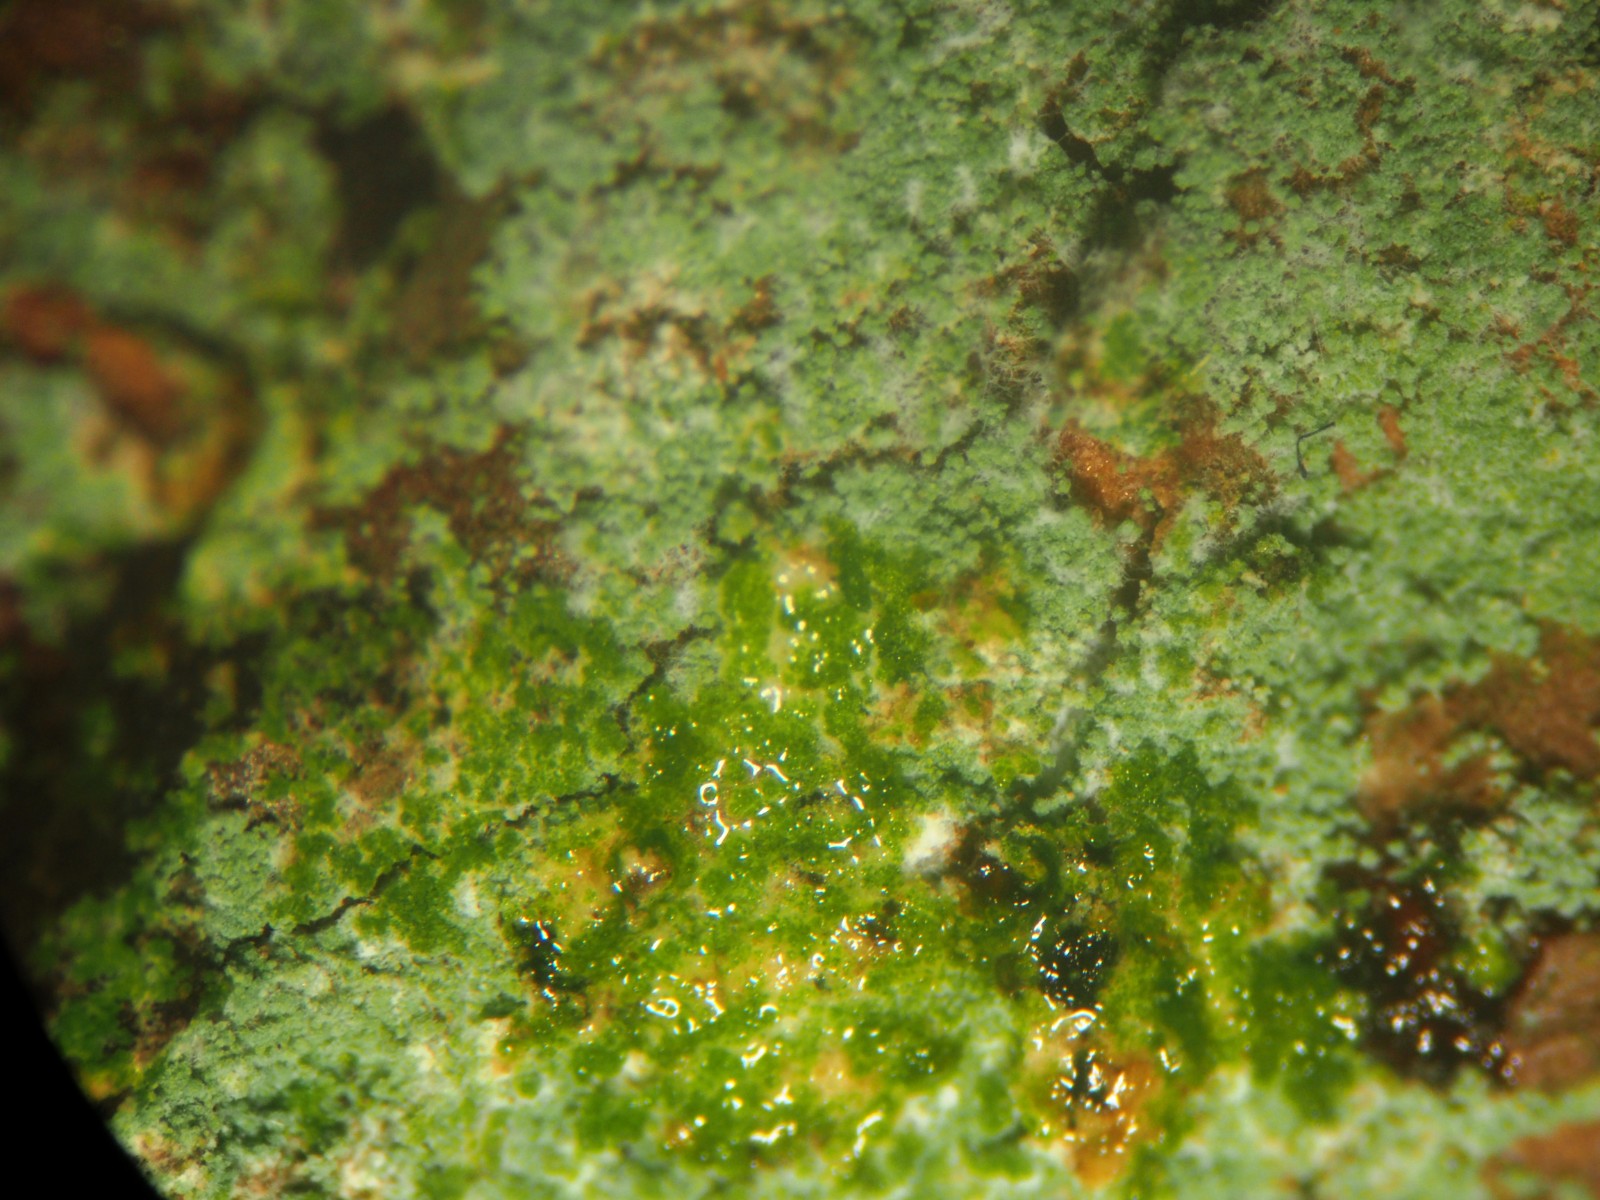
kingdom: Fungi
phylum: Ascomycota
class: Lecanoromycetes
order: Lecanorales
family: Stereocaulaceae
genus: Lepraria
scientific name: Lepraria
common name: støvlav
